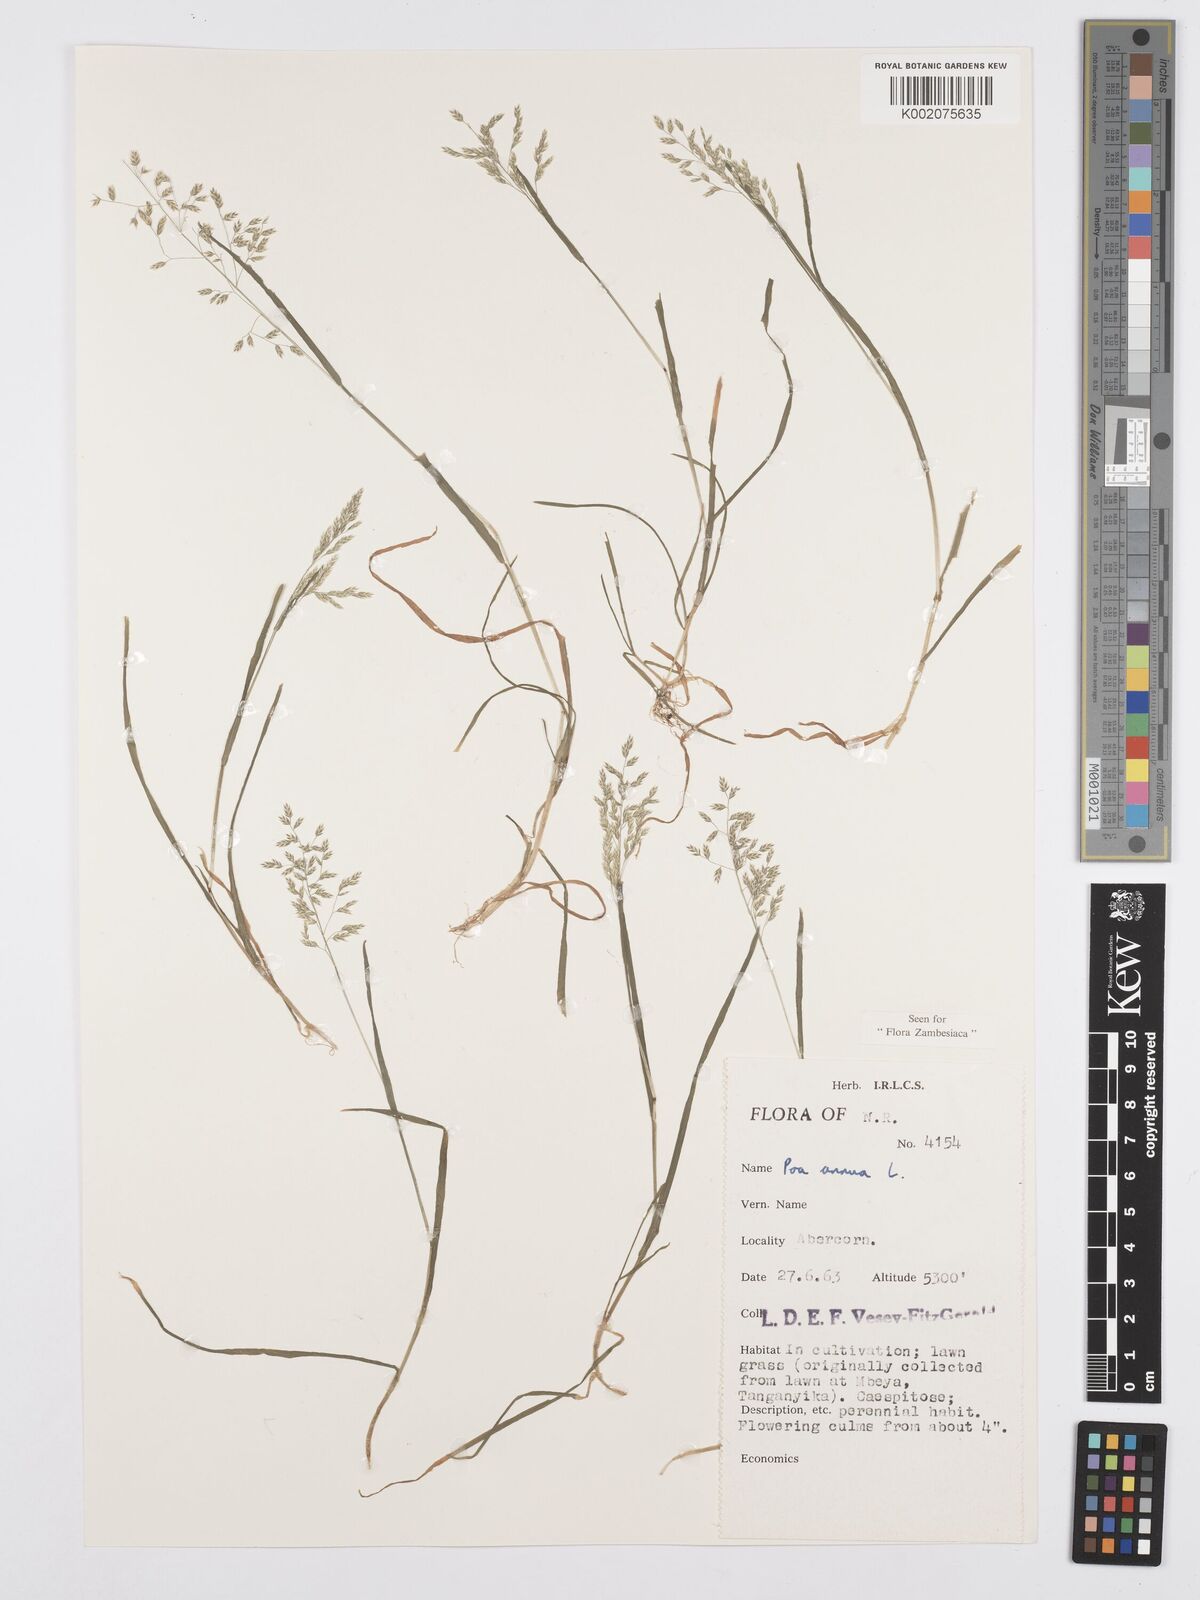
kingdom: Plantae
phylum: Tracheophyta
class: Liliopsida
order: Poales
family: Poaceae
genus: Poa
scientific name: Poa annua
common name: Annual bluegrass
